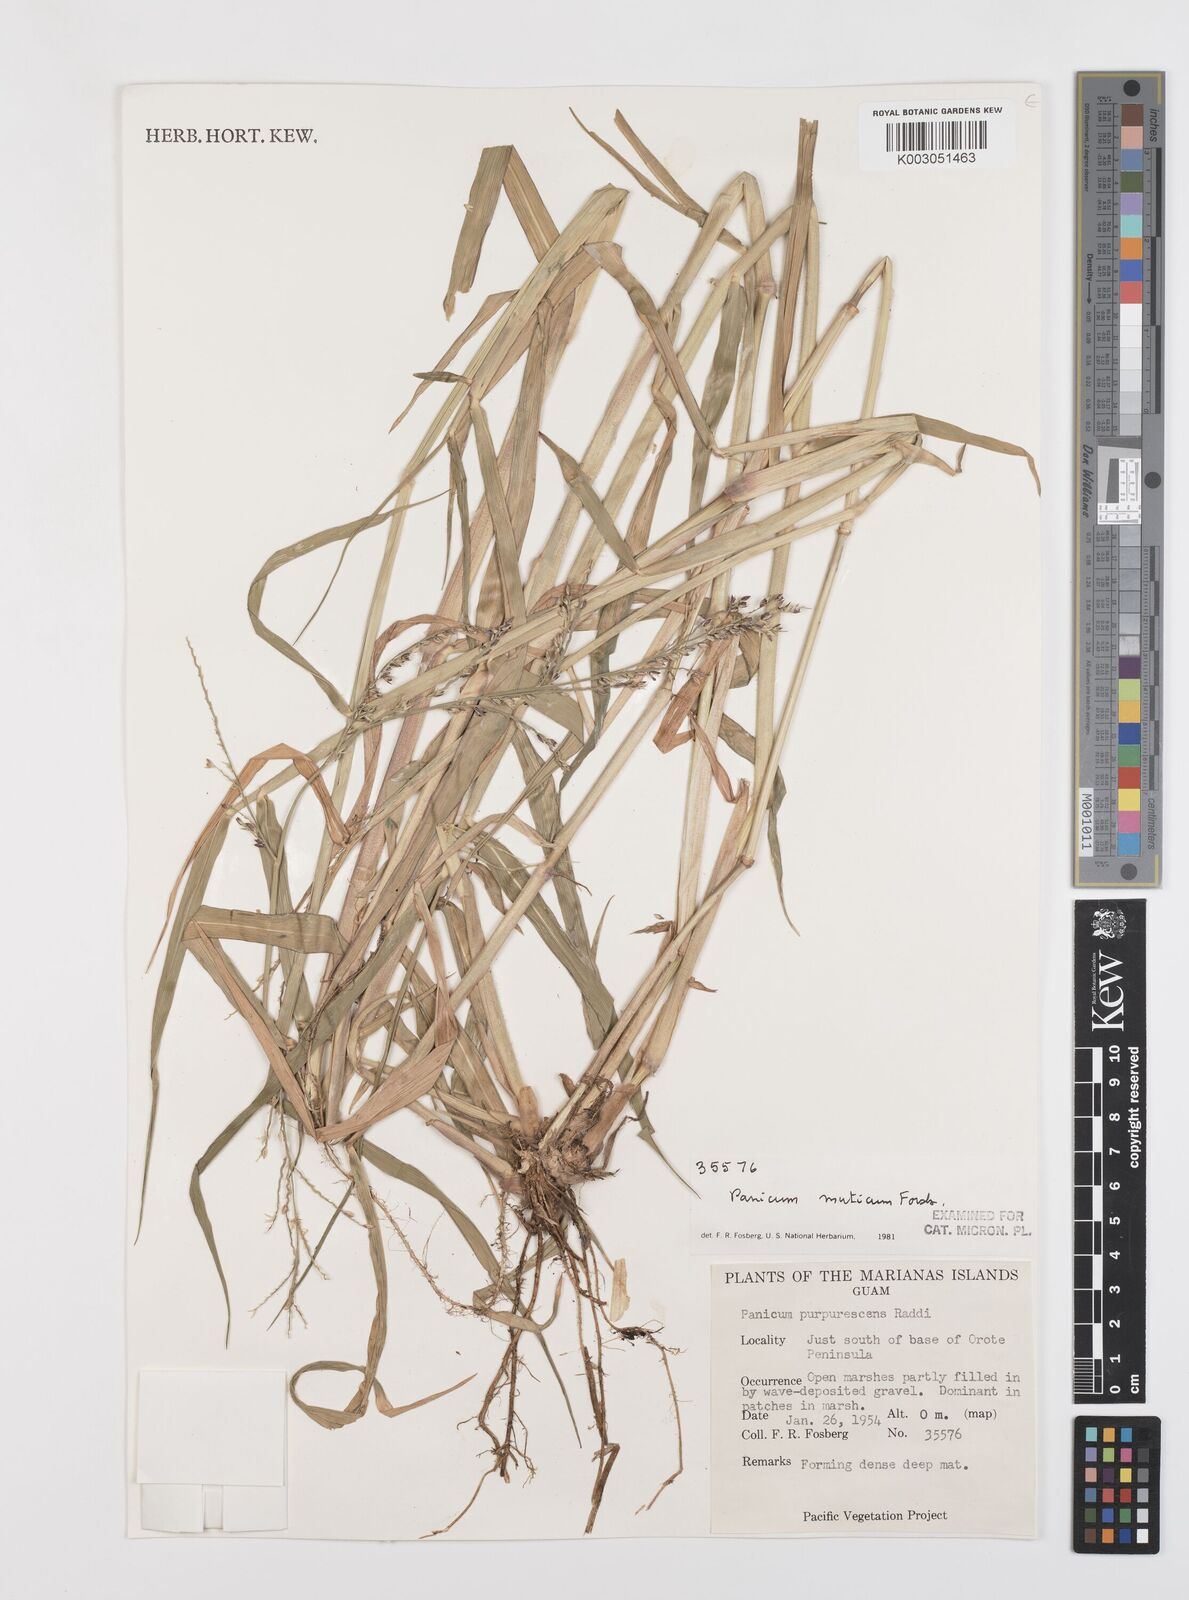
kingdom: Plantae
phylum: Tracheophyta
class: Liliopsida
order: Poales
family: Poaceae
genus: Urochloa
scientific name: Urochloa mutica
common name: Para grass
